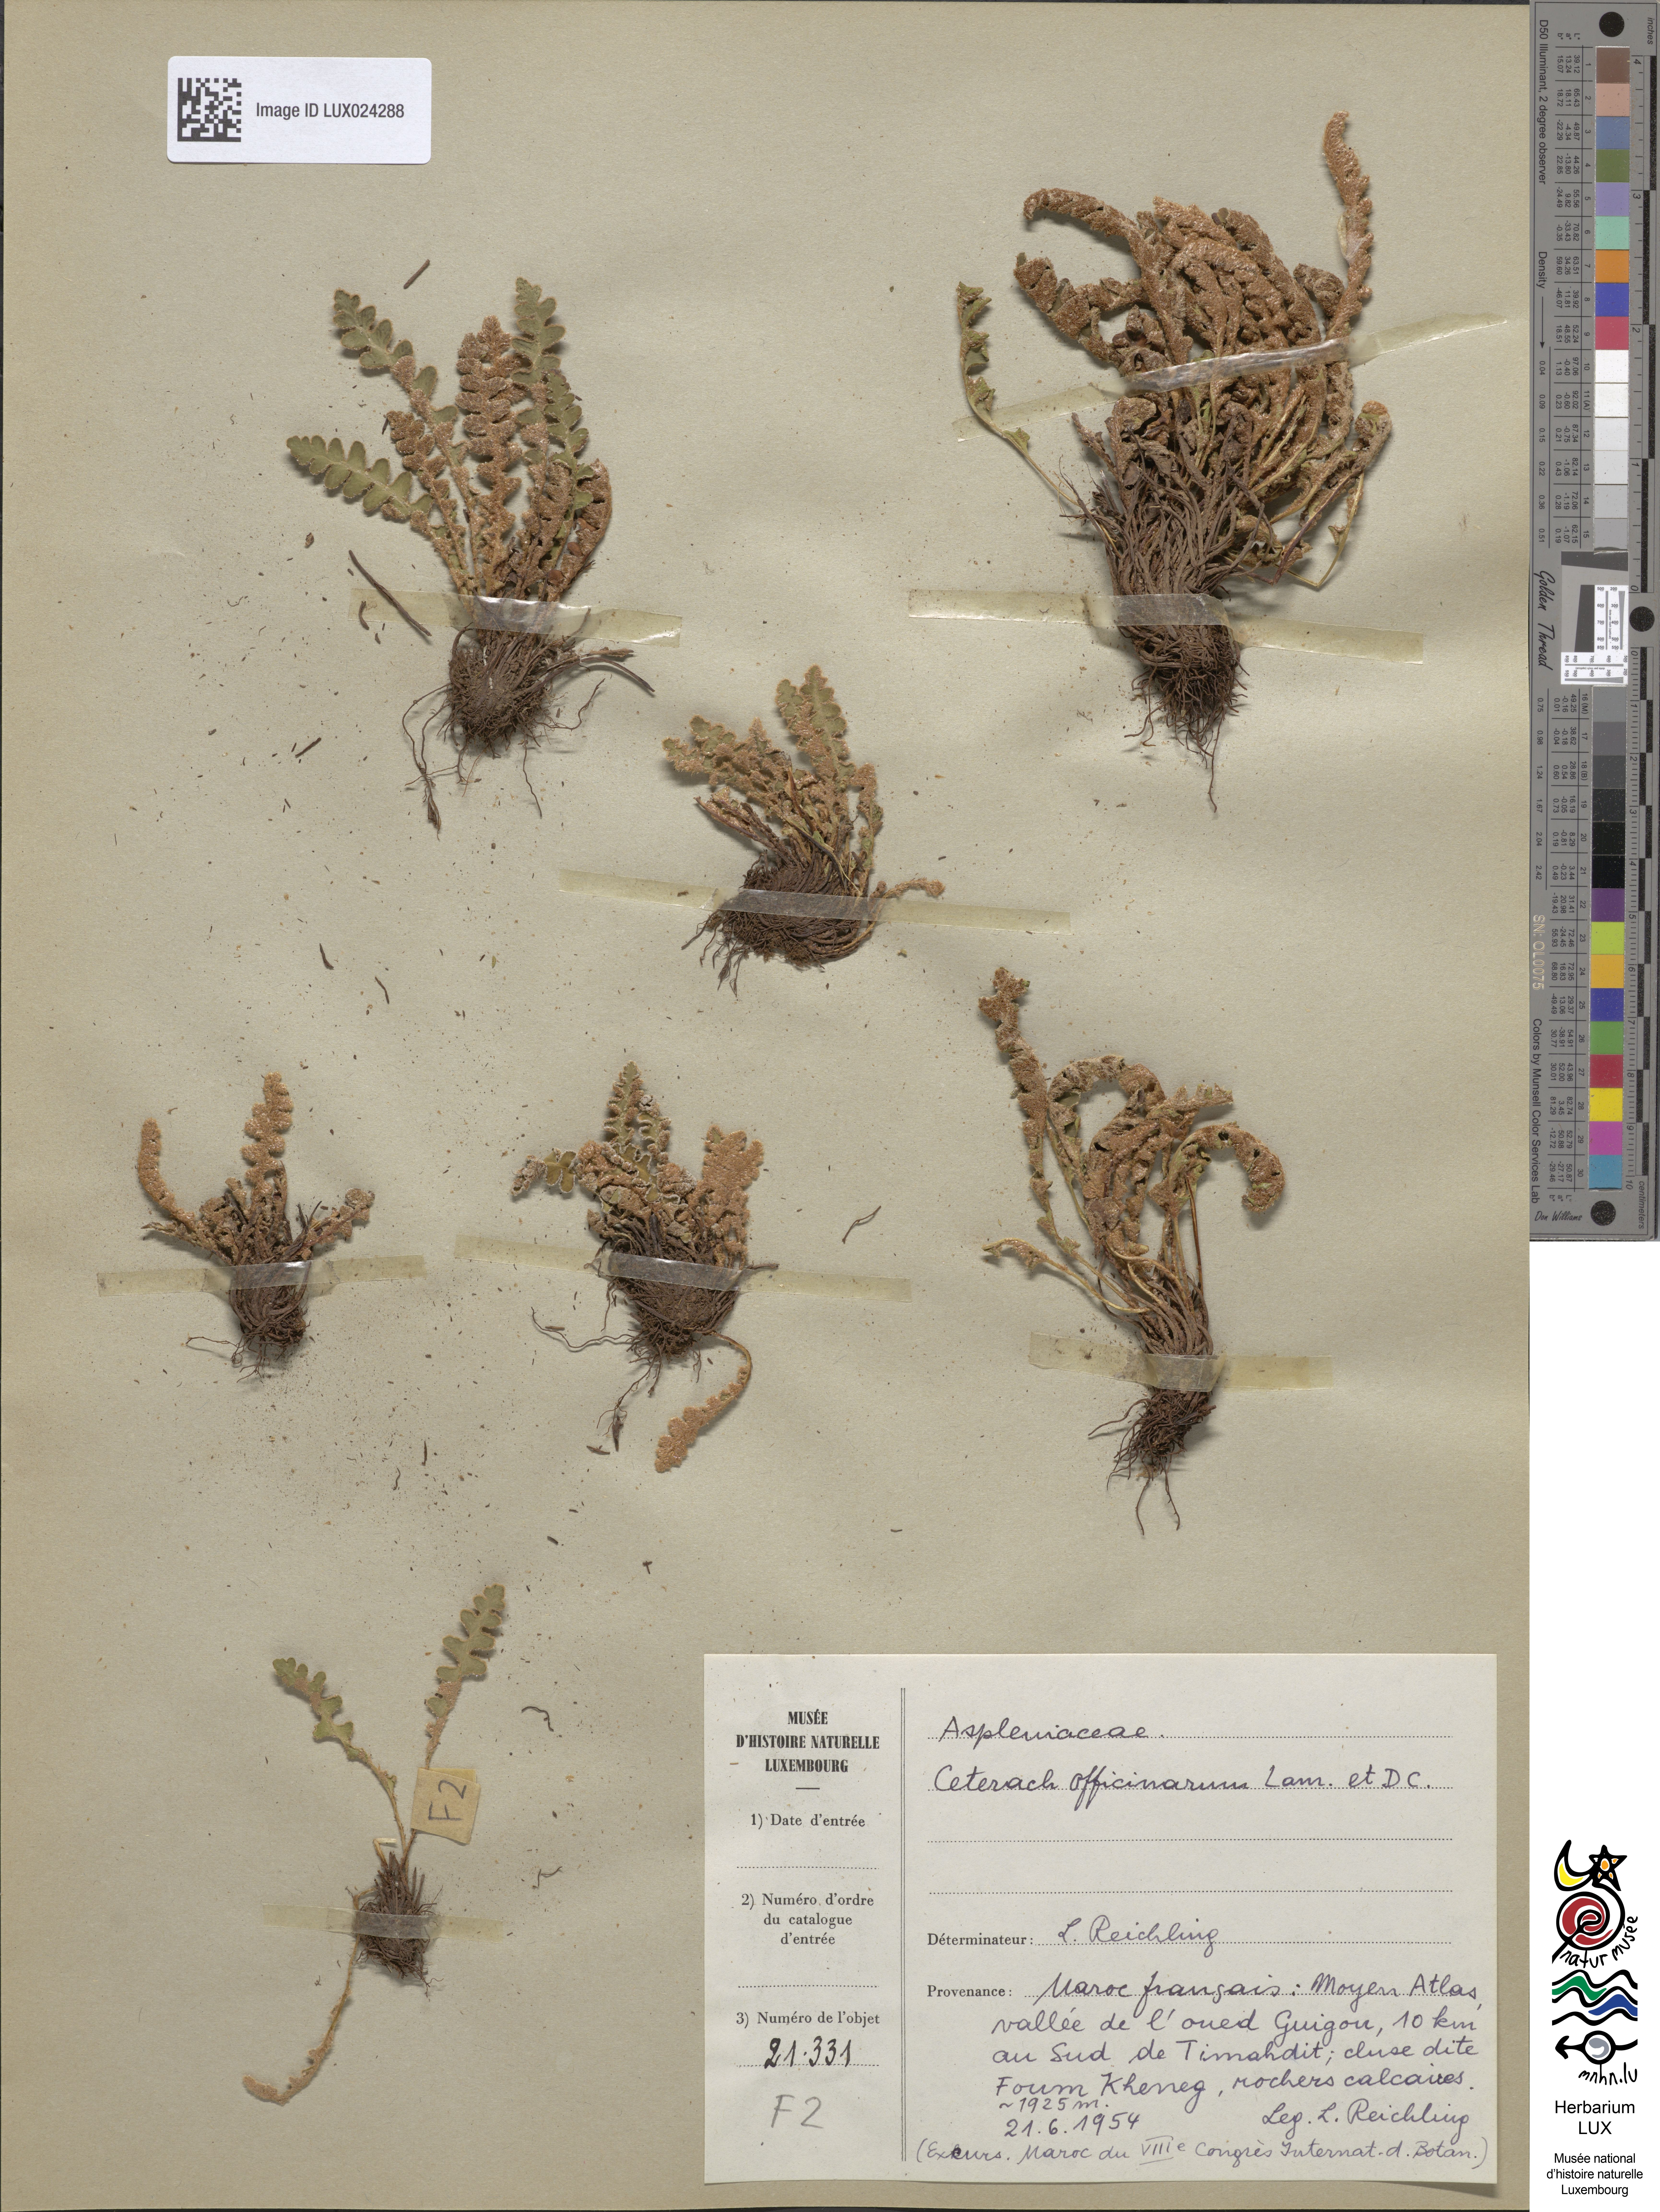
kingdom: Plantae
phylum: Tracheophyta
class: Polypodiopsida
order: Polypodiales
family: Aspleniaceae
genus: Asplenium
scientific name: Asplenium ceterach
